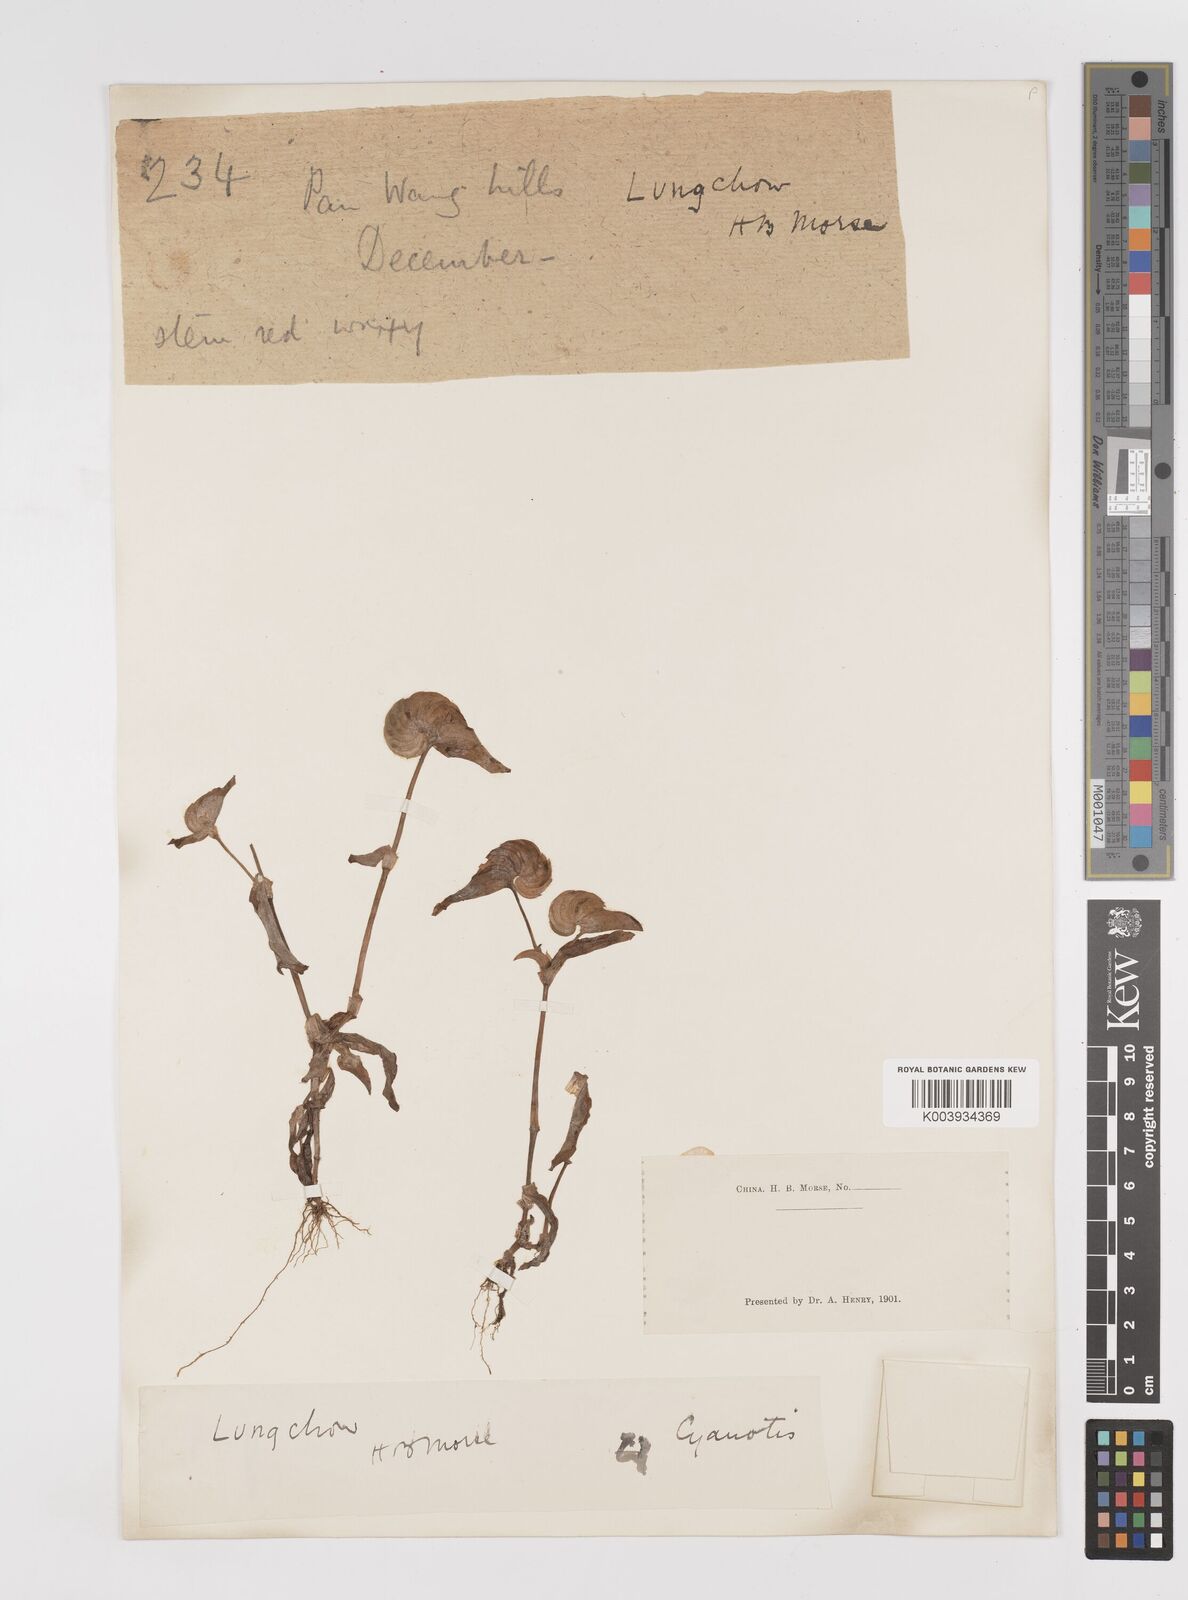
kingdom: Plantae
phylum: Tracheophyta
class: Liliopsida
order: Commelinales
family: Commelinaceae
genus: Cyanotis
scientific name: Cyanotis
